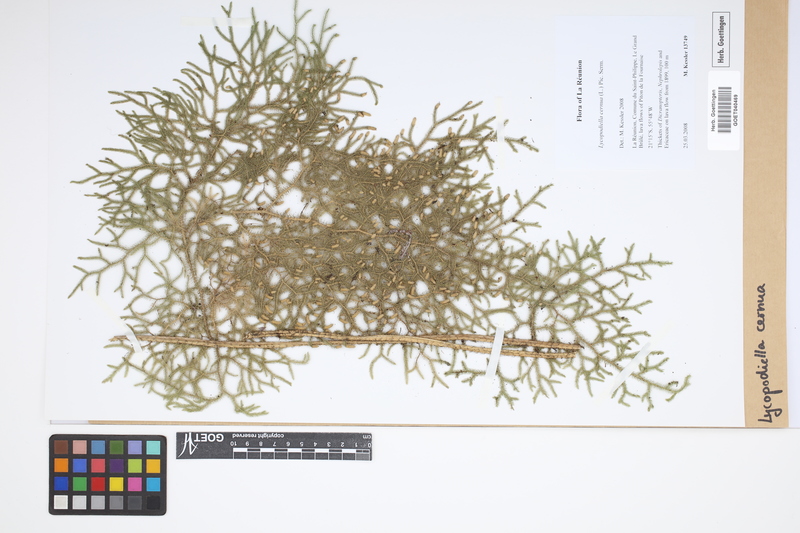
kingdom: Plantae
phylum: Tracheophyta
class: Lycopodiopsida
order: Lycopodiales
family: Lycopodiaceae
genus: Palhinhaea
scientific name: Palhinhaea cernua
